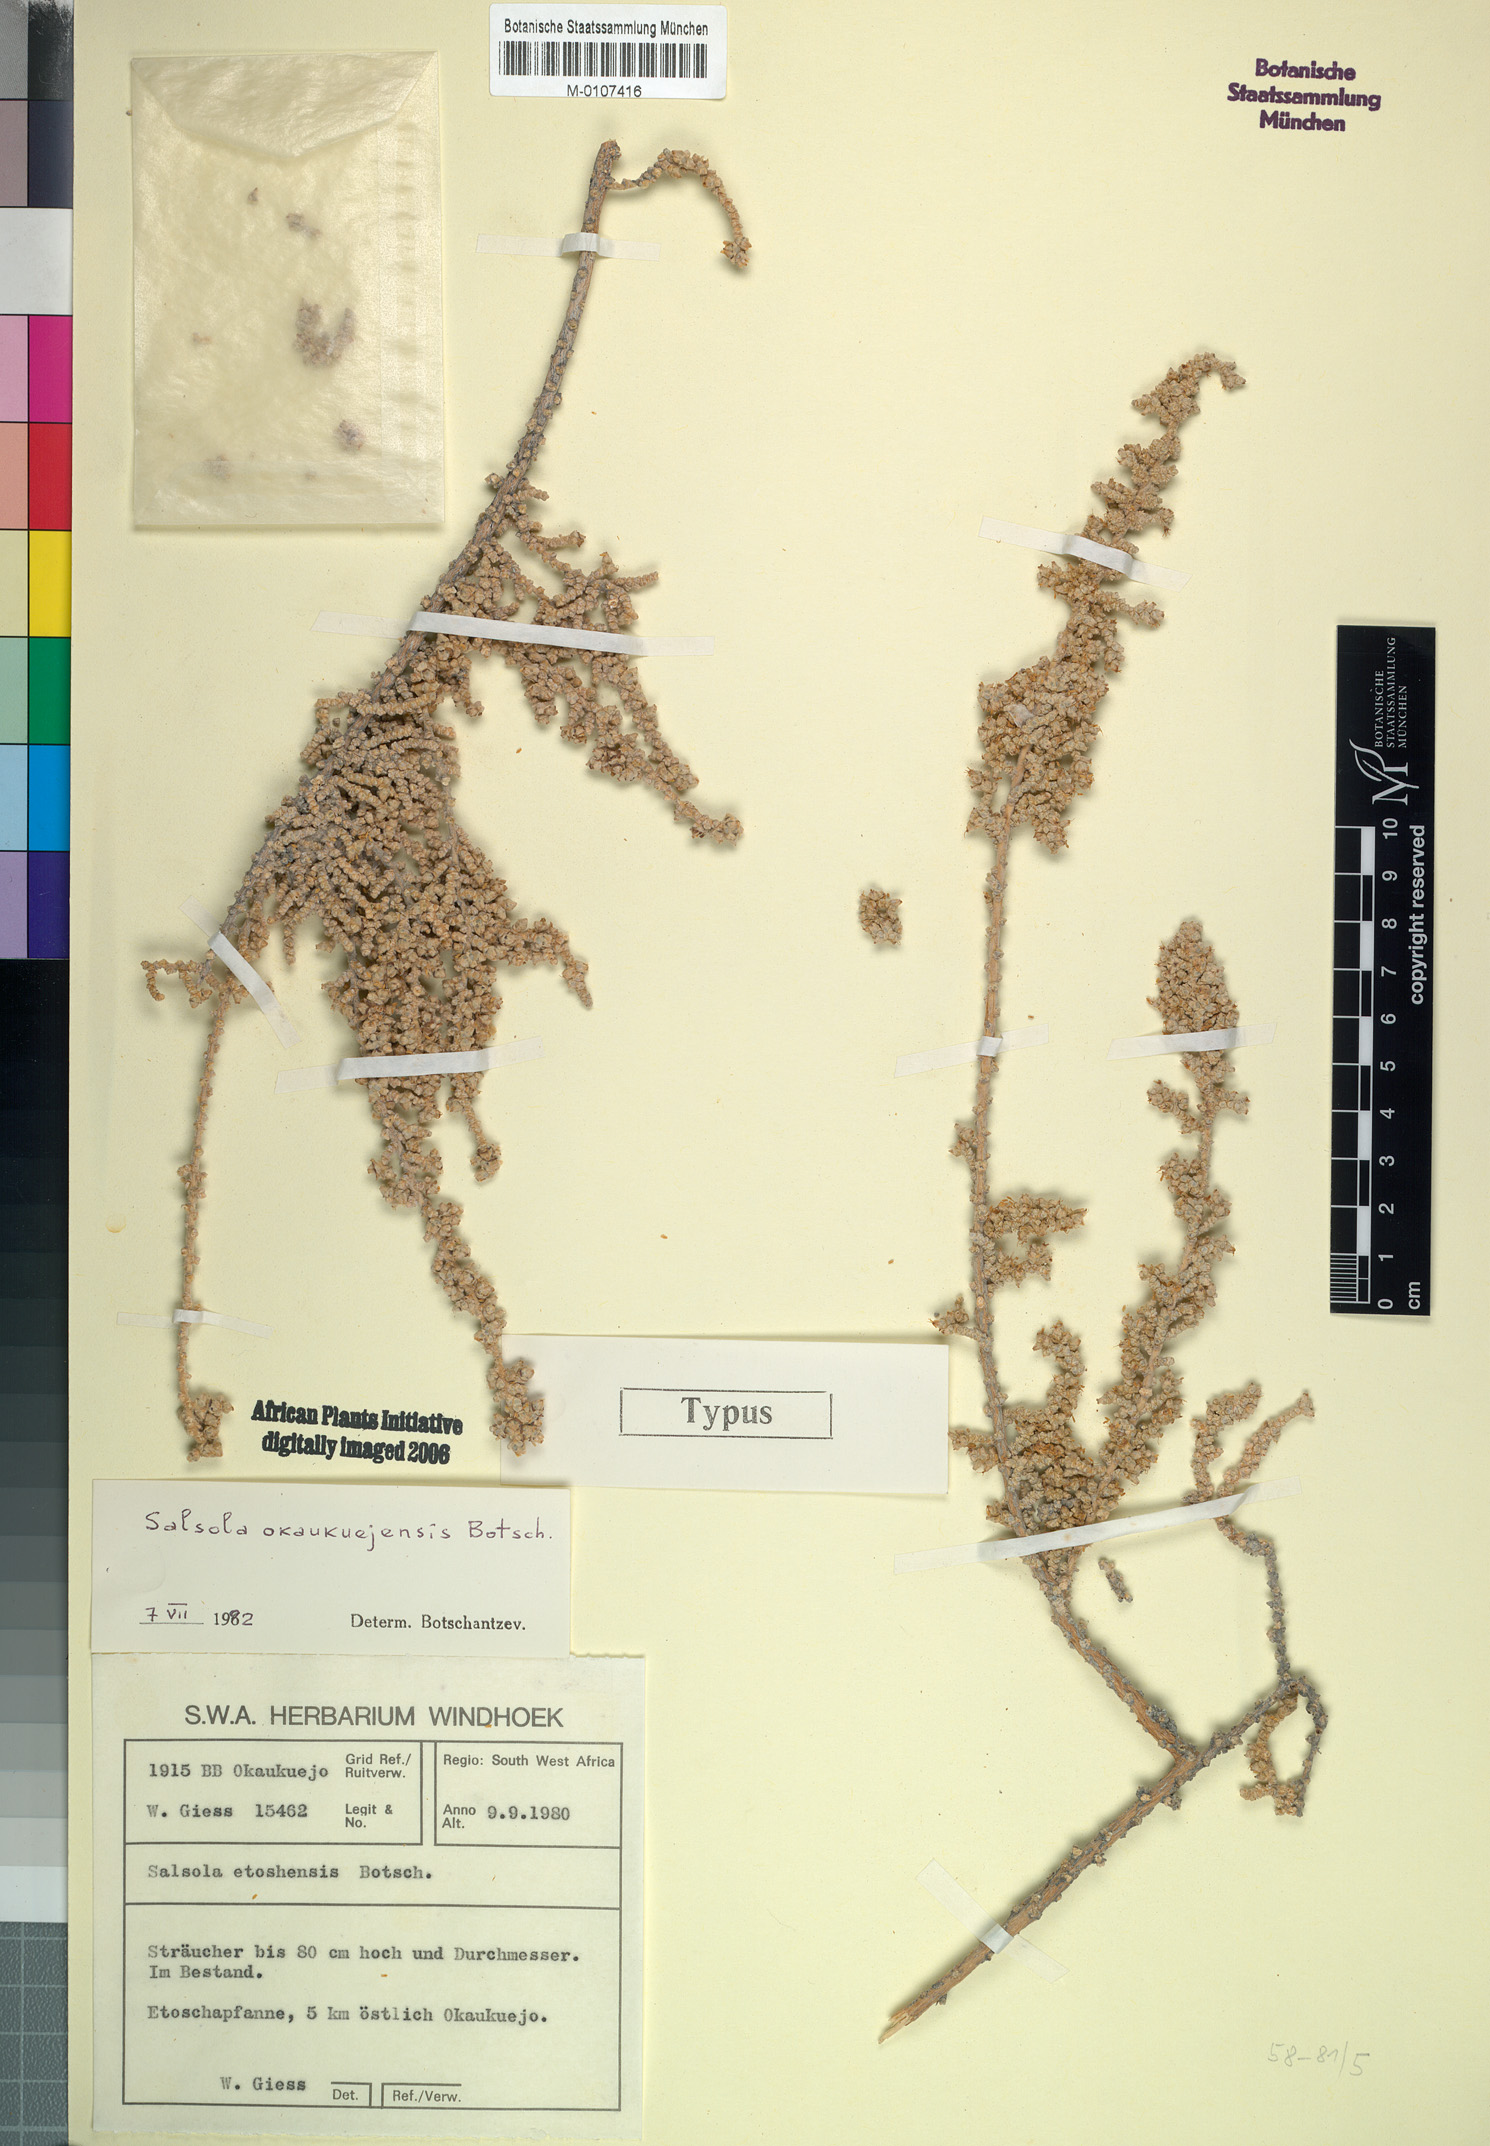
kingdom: Plantae
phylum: Tracheophyta
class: Magnoliopsida
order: Caryophyllales
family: Amaranthaceae
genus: Caroxylon
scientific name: Caroxylon okaukuejense
